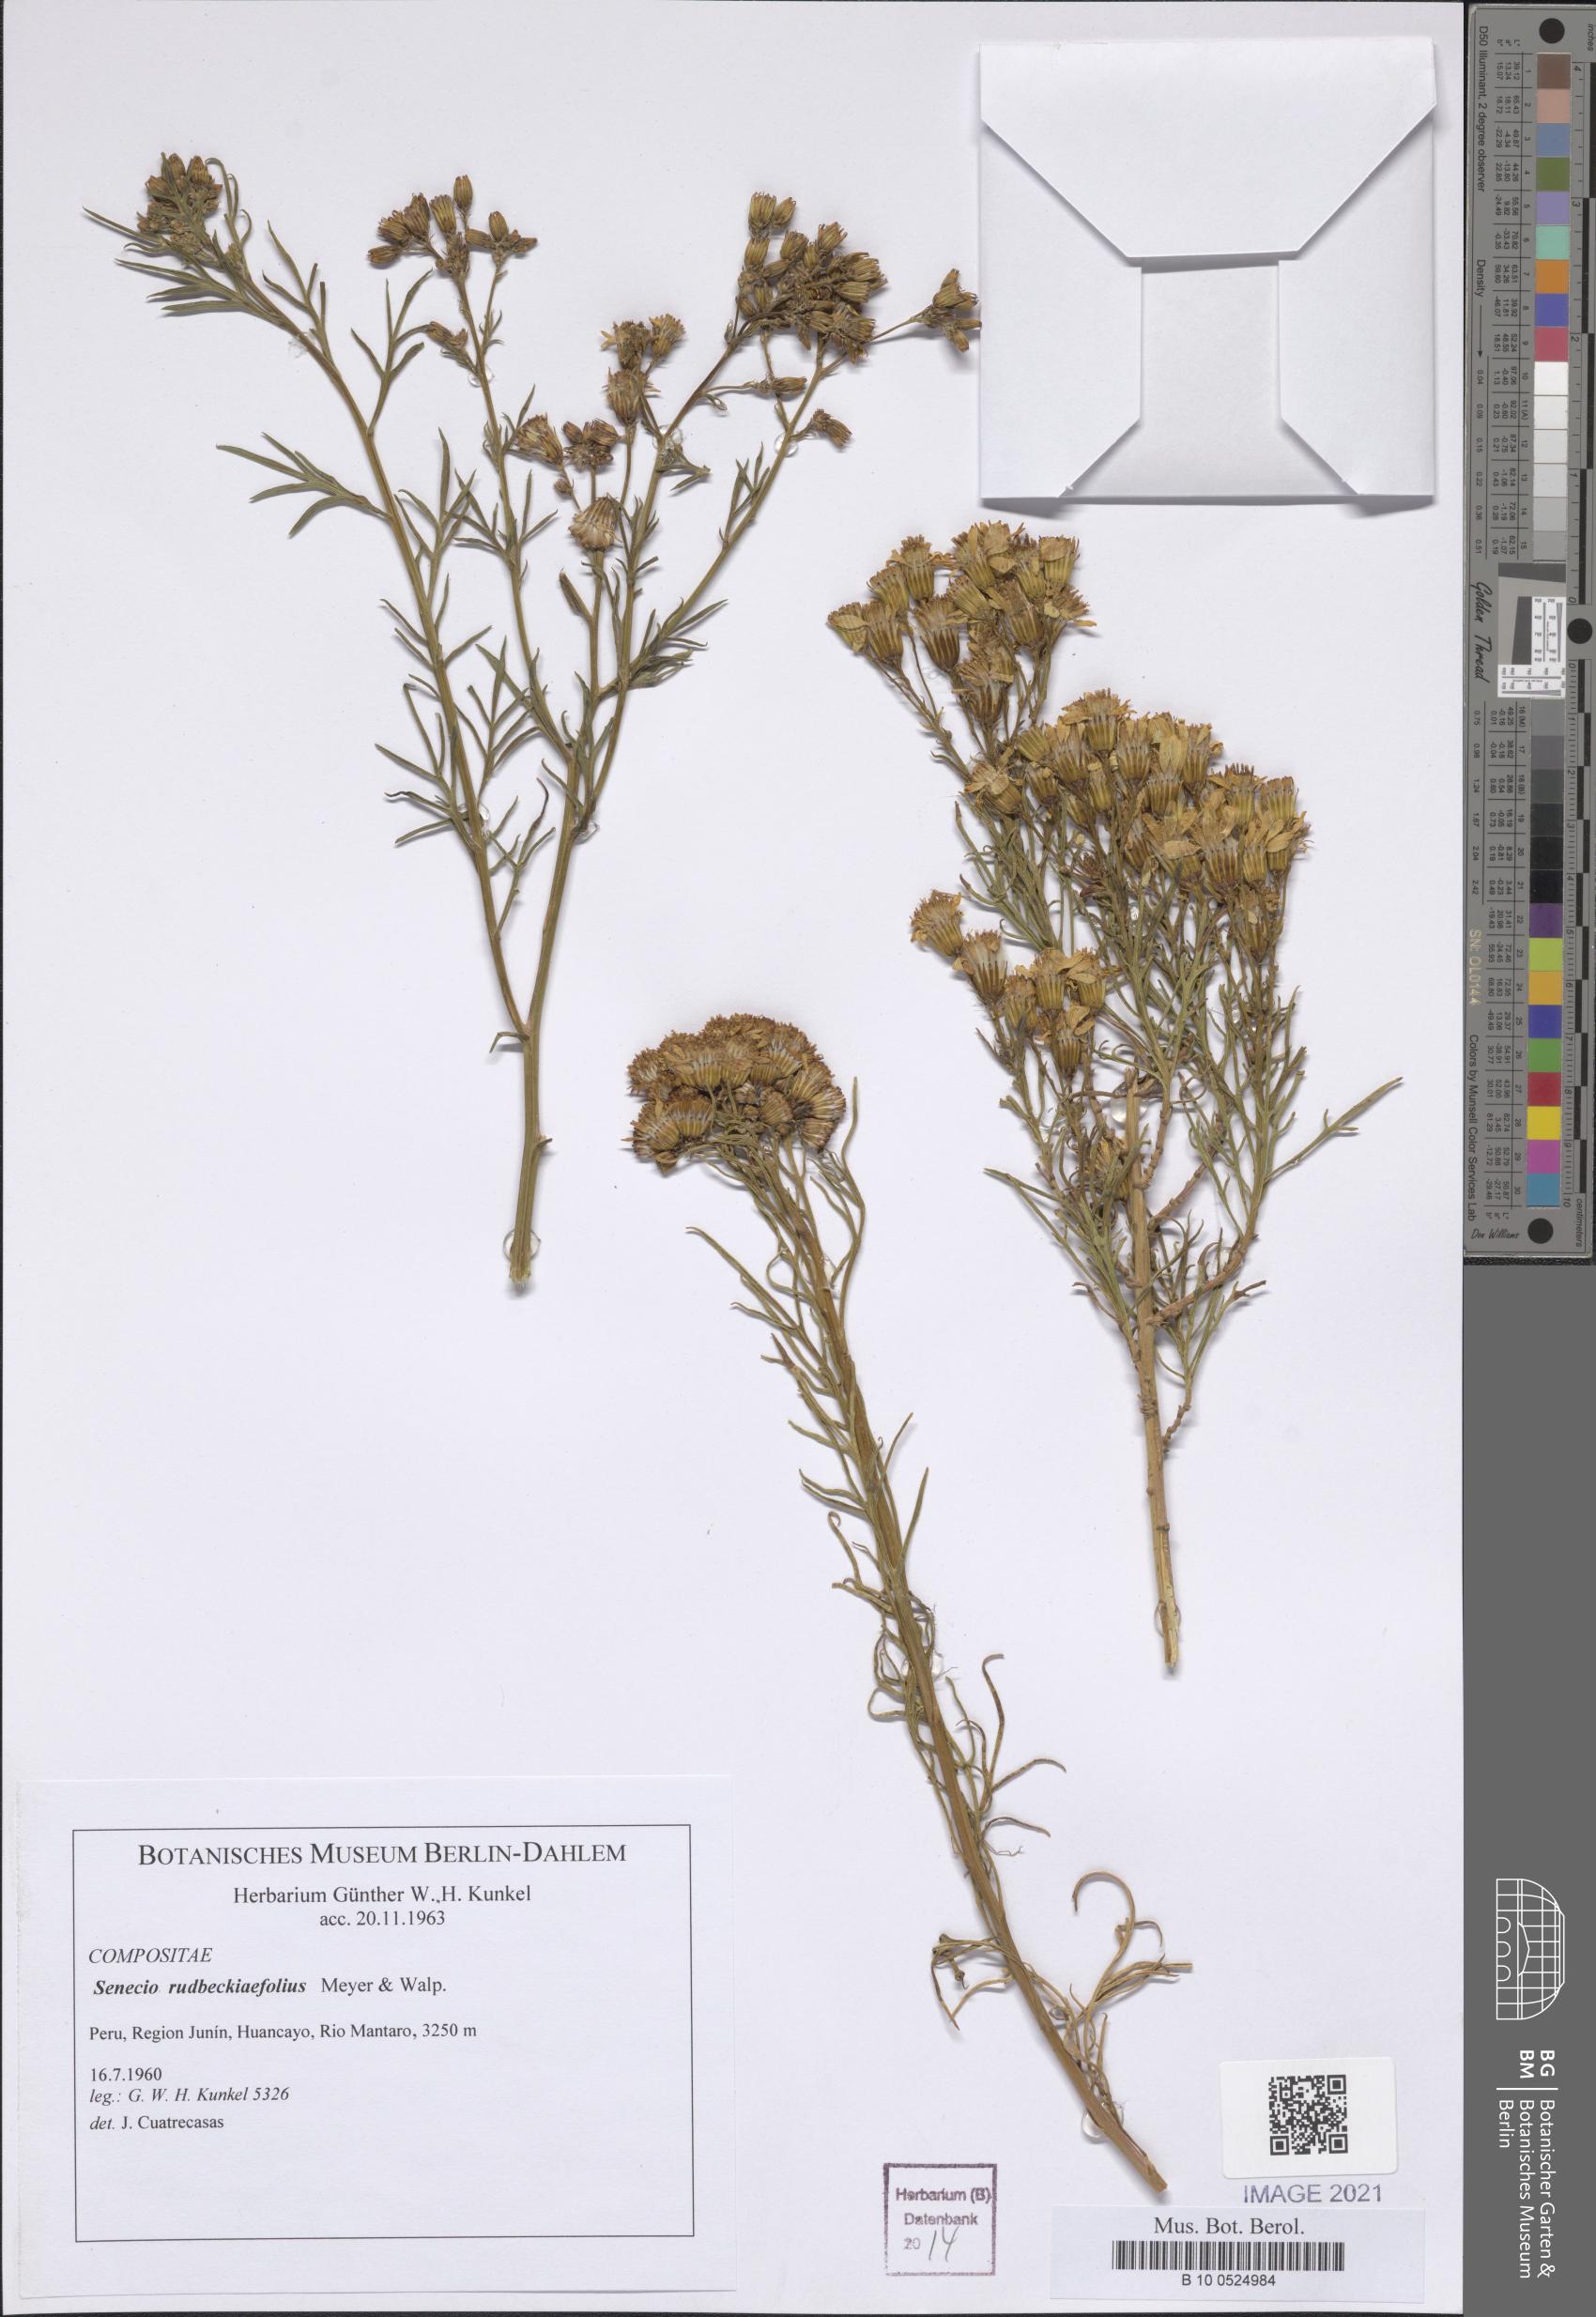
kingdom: Plantae
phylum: Tracheophyta
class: Magnoliopsida
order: Asterales
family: Asteraceae
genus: Senecio
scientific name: Senecio rudbeckiaefolius
